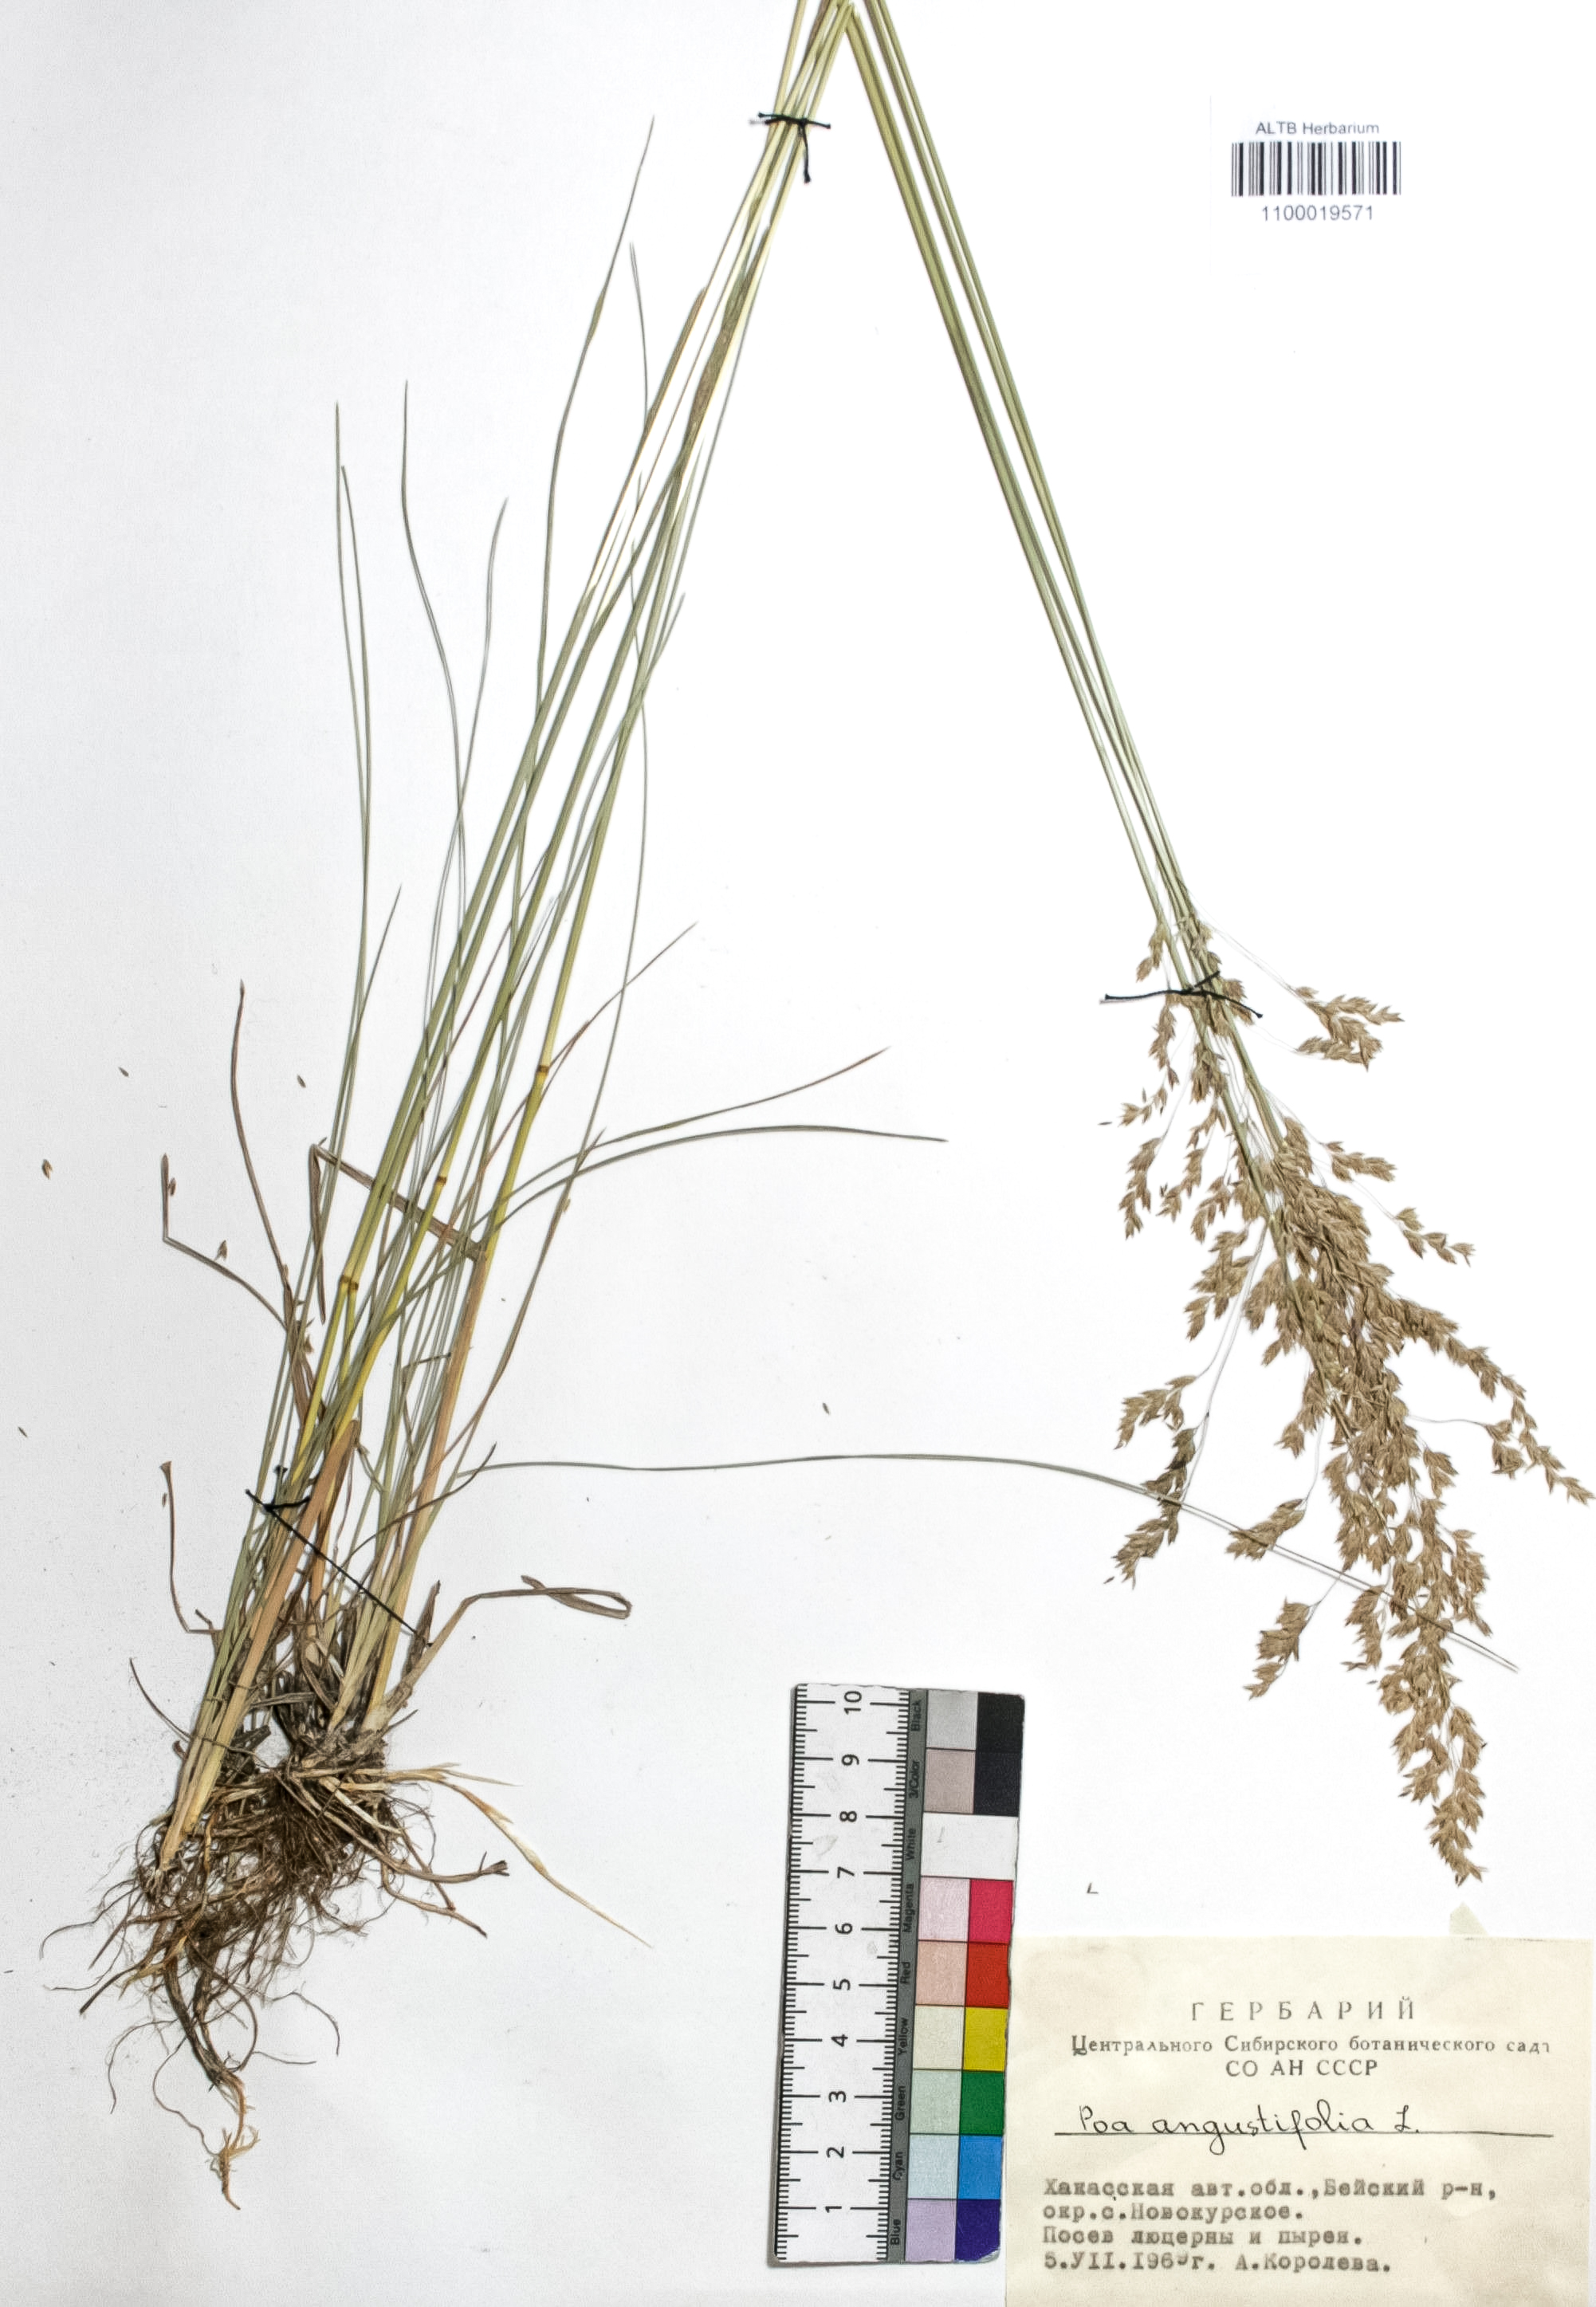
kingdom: Plantae
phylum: Tracheophyta
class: Liliopsida
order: Poales
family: Poaceae
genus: Poa
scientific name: Poa angustifolia
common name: Narrow-leaved meadow-grass
